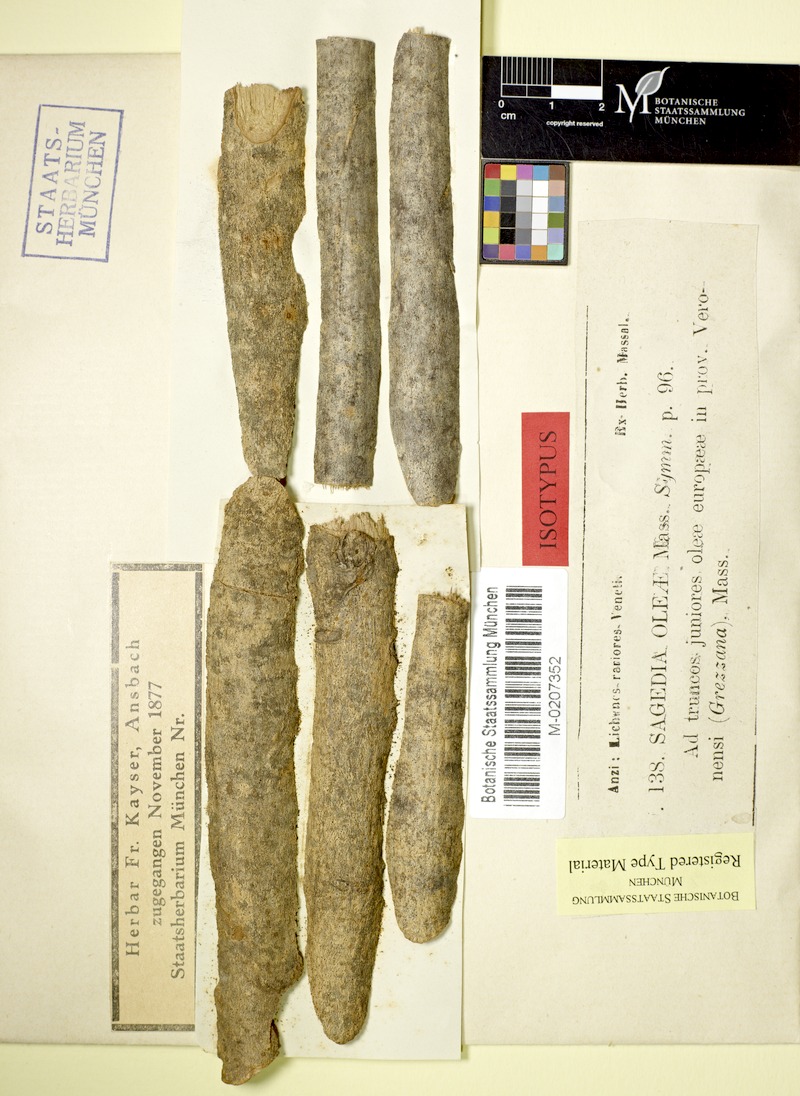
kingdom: Fungi
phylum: Ascomycota
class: Dothideomycetes
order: Pleosporales
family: Naetrocymbaceae
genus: Leptorhaphis
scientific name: Leptorhaphis oleae
